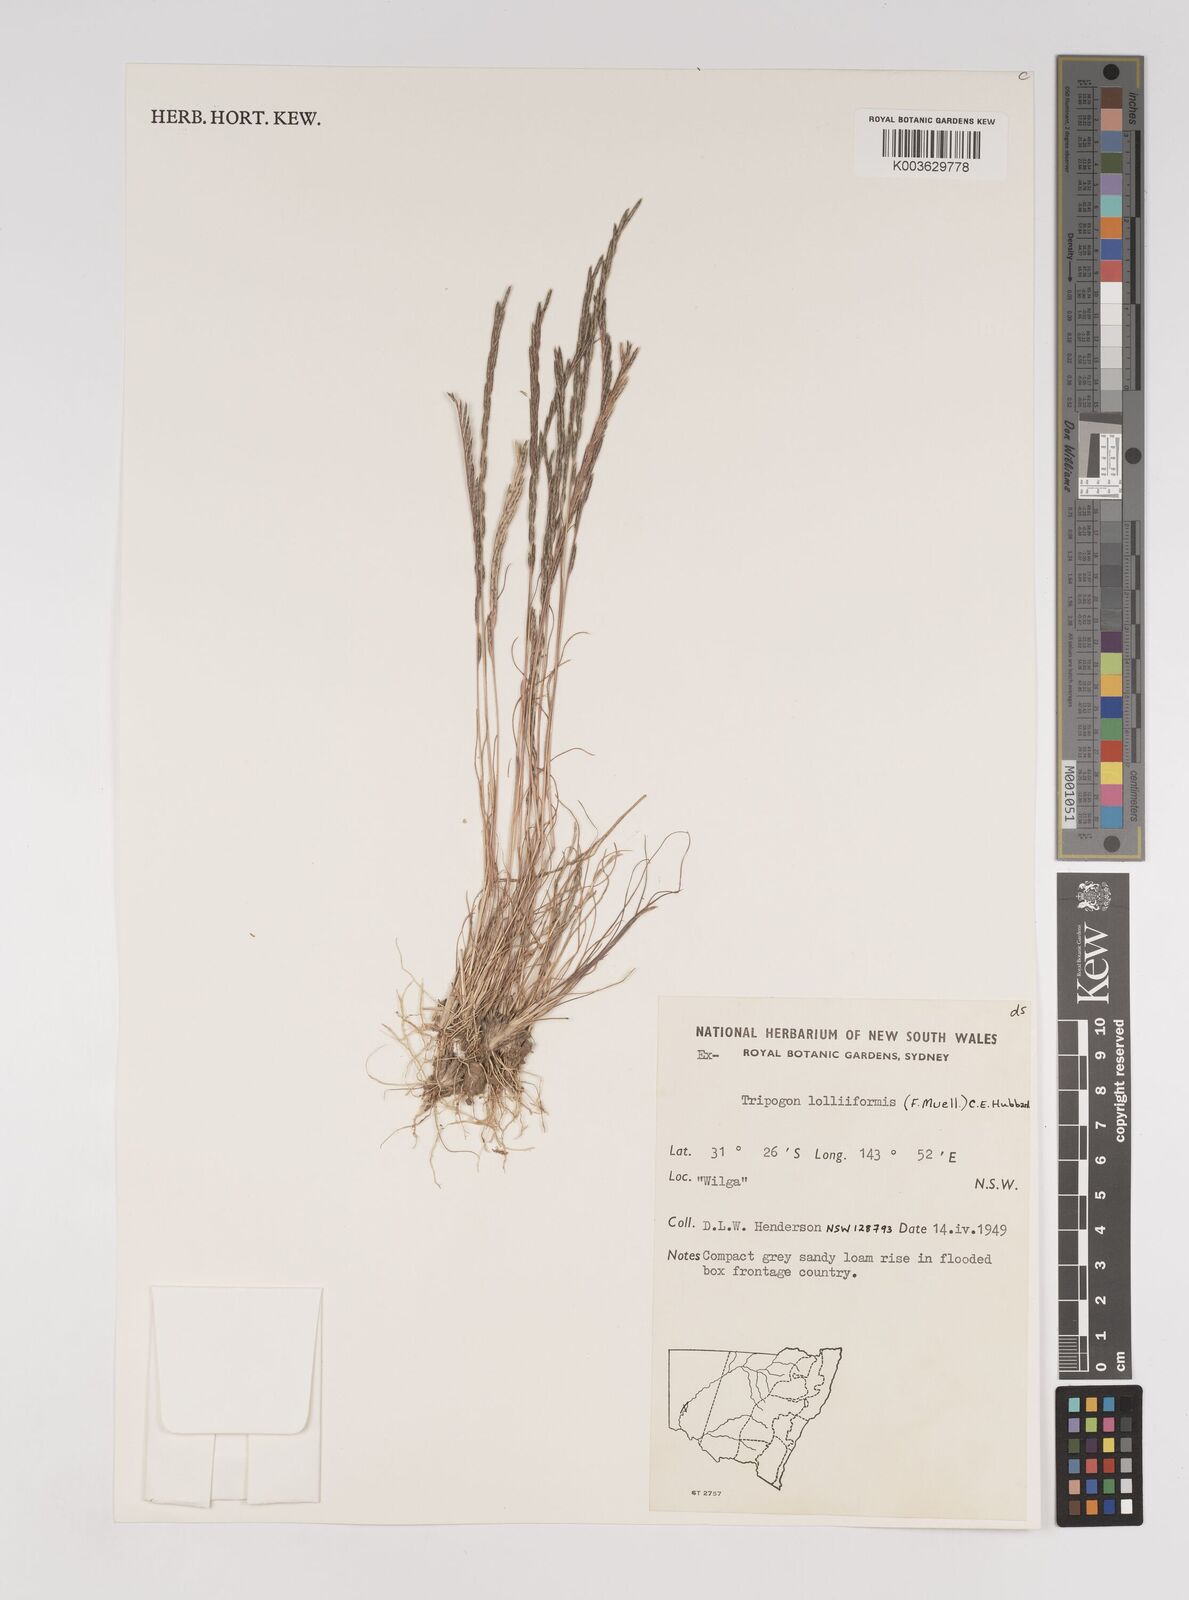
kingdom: Plantae
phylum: Tracheophyta
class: Liliopsida
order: Poales
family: Poaceae
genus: Tripogonella
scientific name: Tripogonella loliiformis
